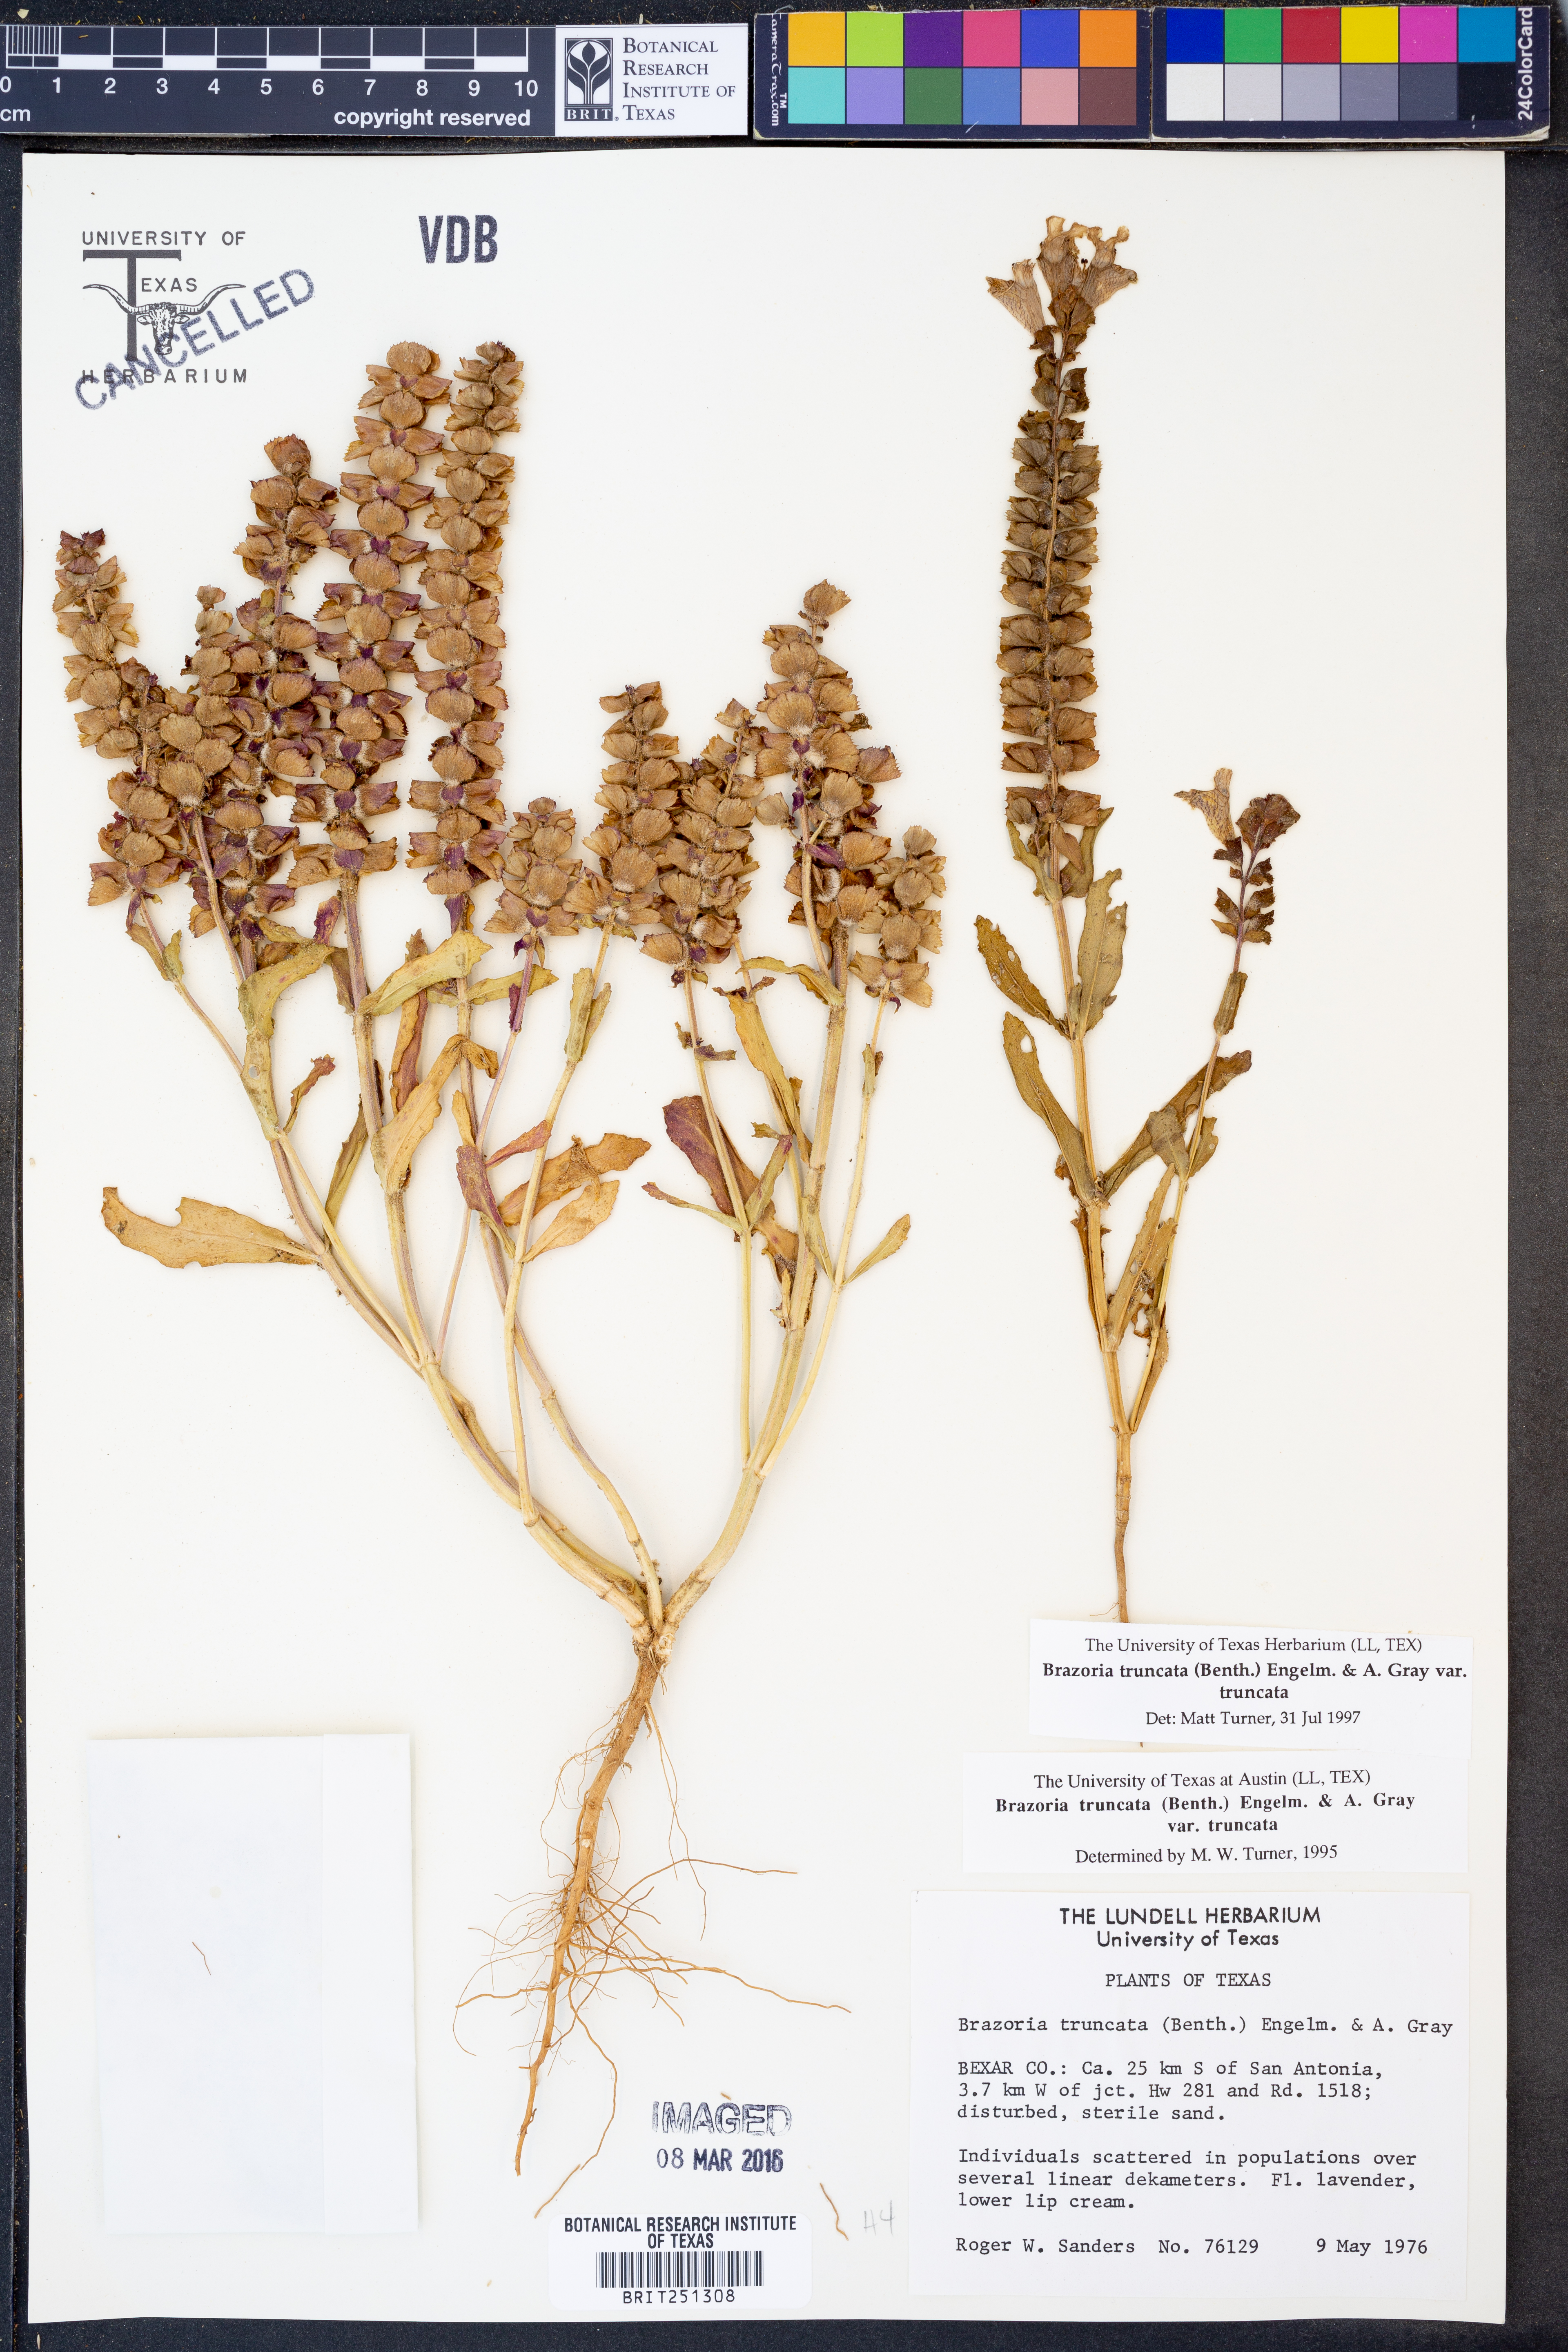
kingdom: Plantae
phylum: Tracheophyta
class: Magnoliopsida
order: Lamiales
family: Lamiaceae
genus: Brazoria
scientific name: Brazoria truncata
